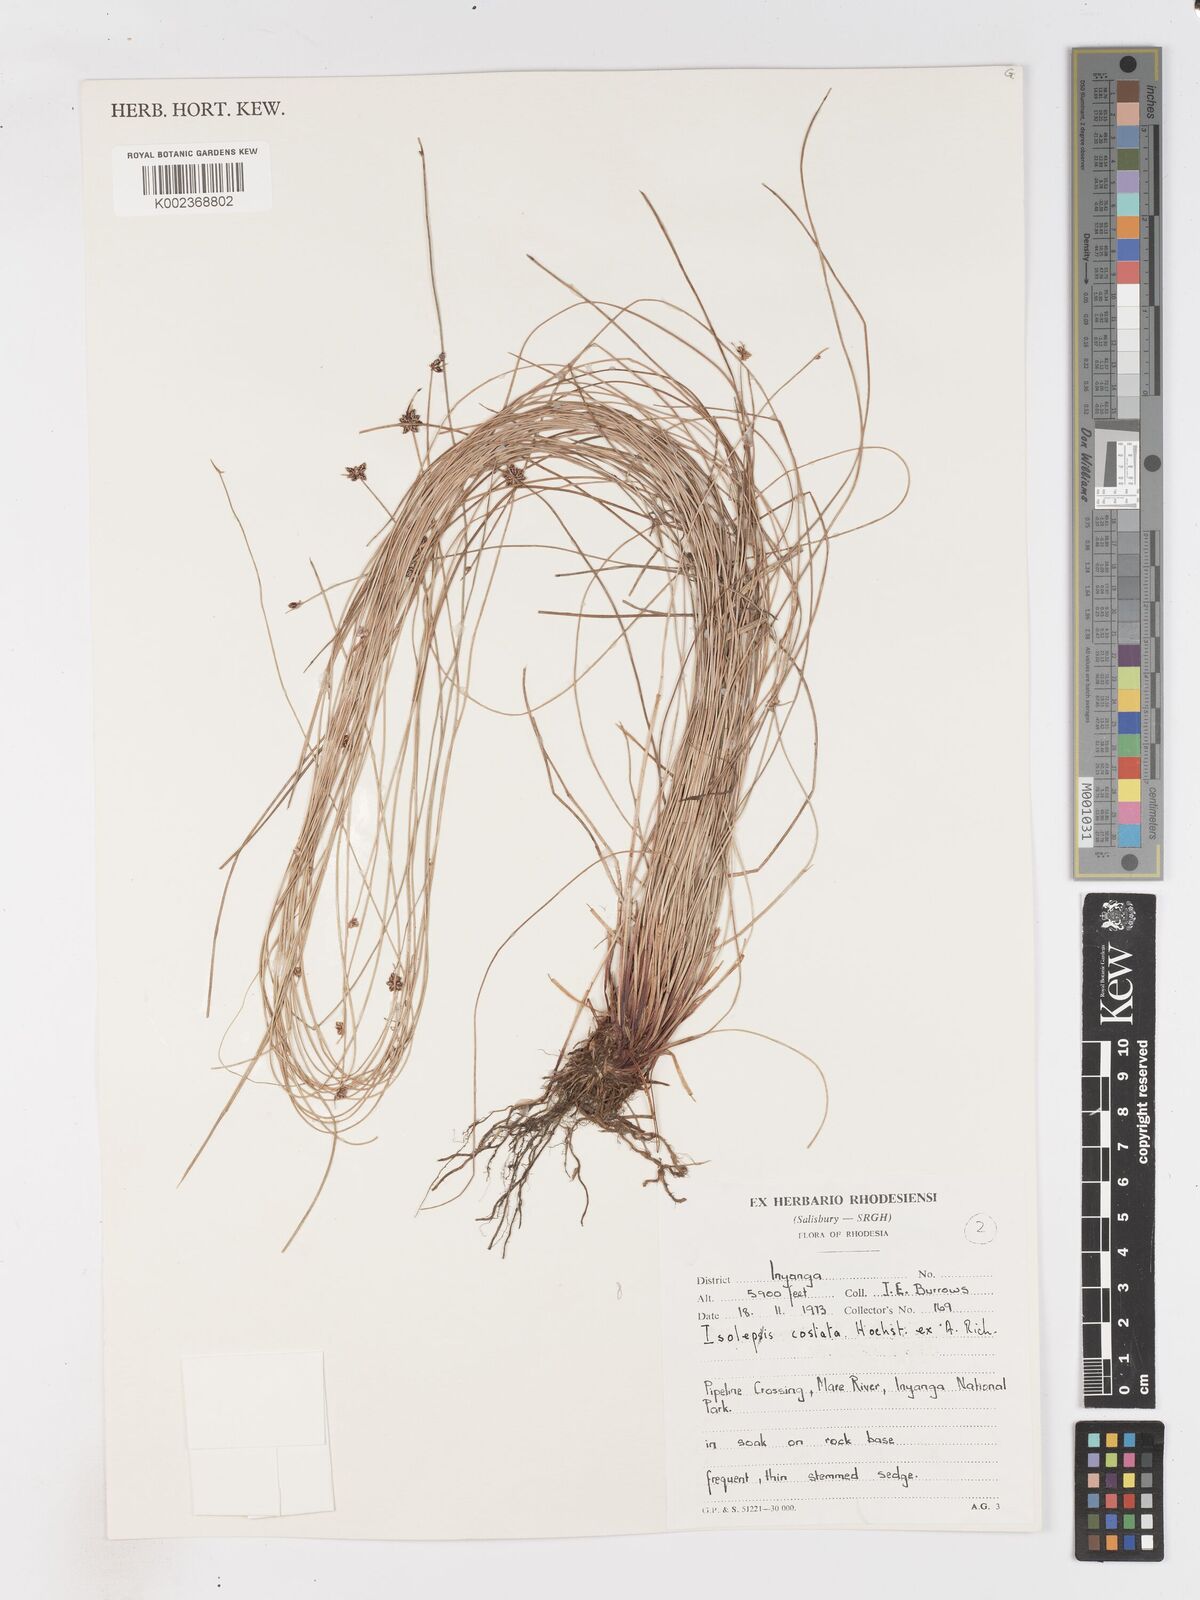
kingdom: Plantae
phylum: Tracheophyta
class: Liliopsida
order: Poales
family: Cyperaceae
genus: Isolepis
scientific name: Isolepis costata
